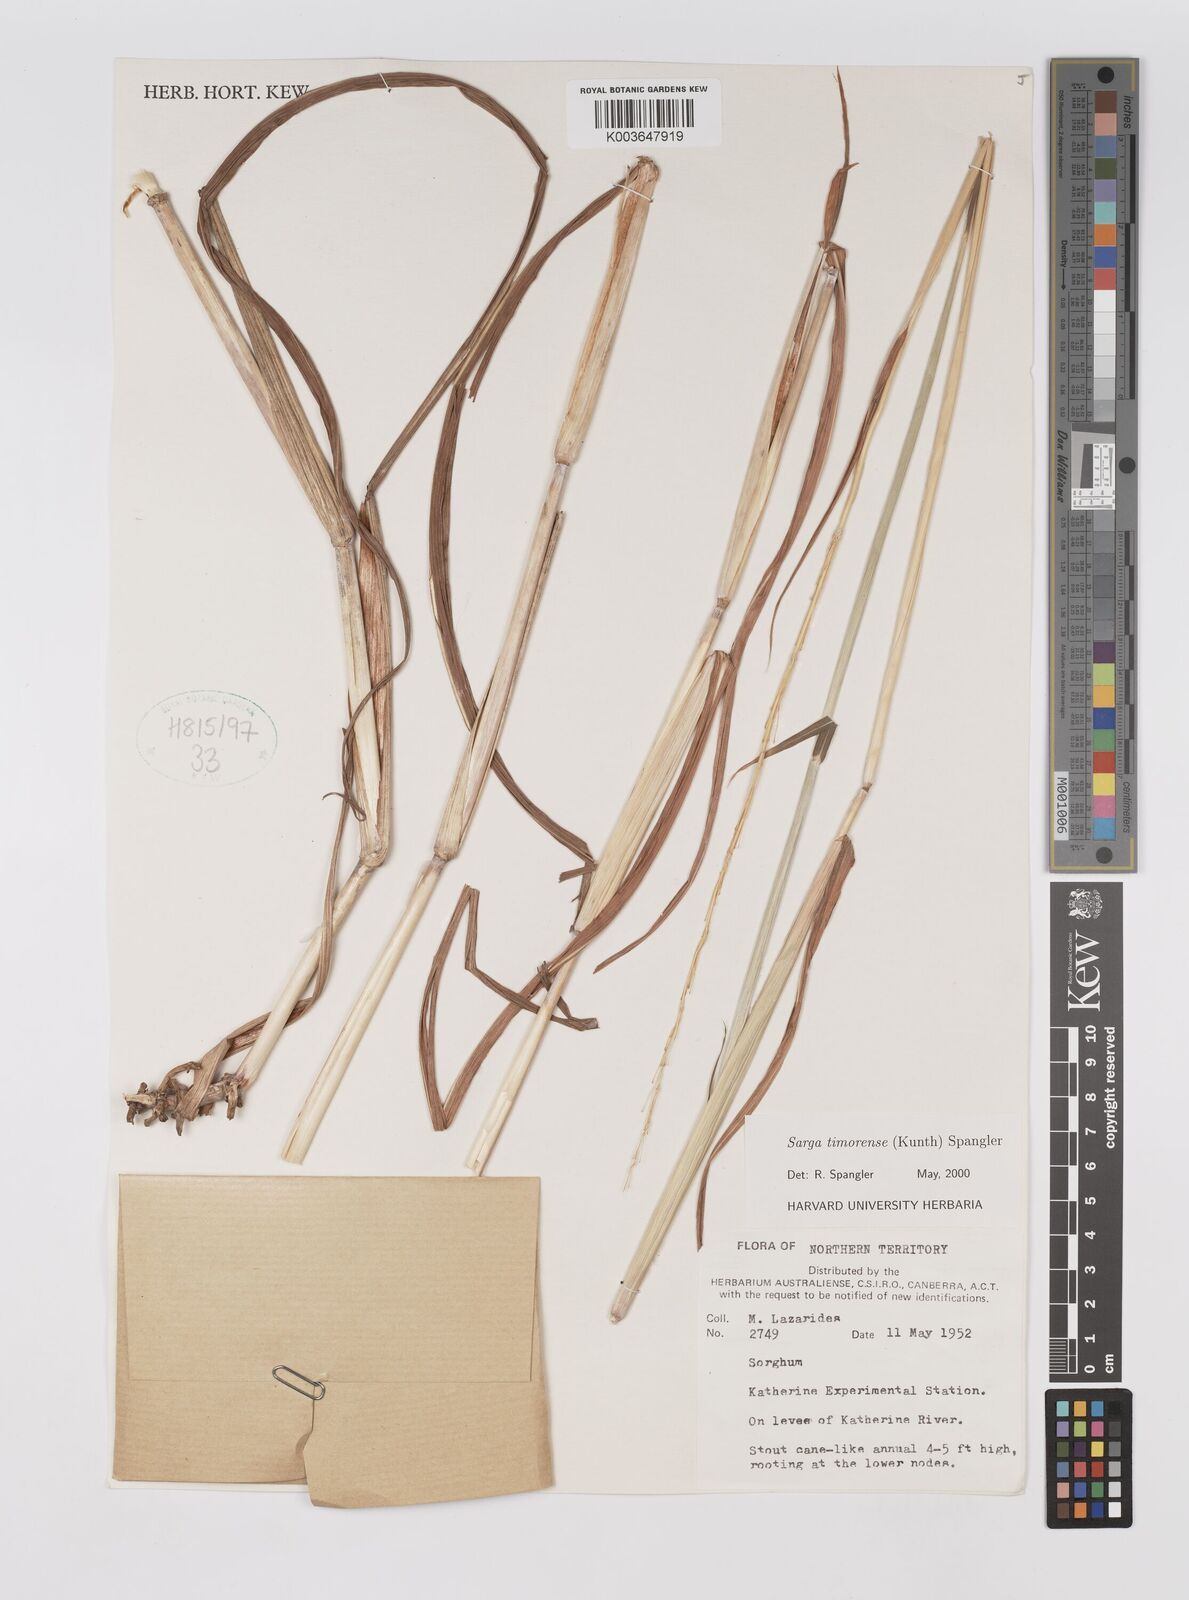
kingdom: Plantae
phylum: Tracheophyta
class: Liliopsida
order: Poales
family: Poaceae
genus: Sarga
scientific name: Sarga timorensis
